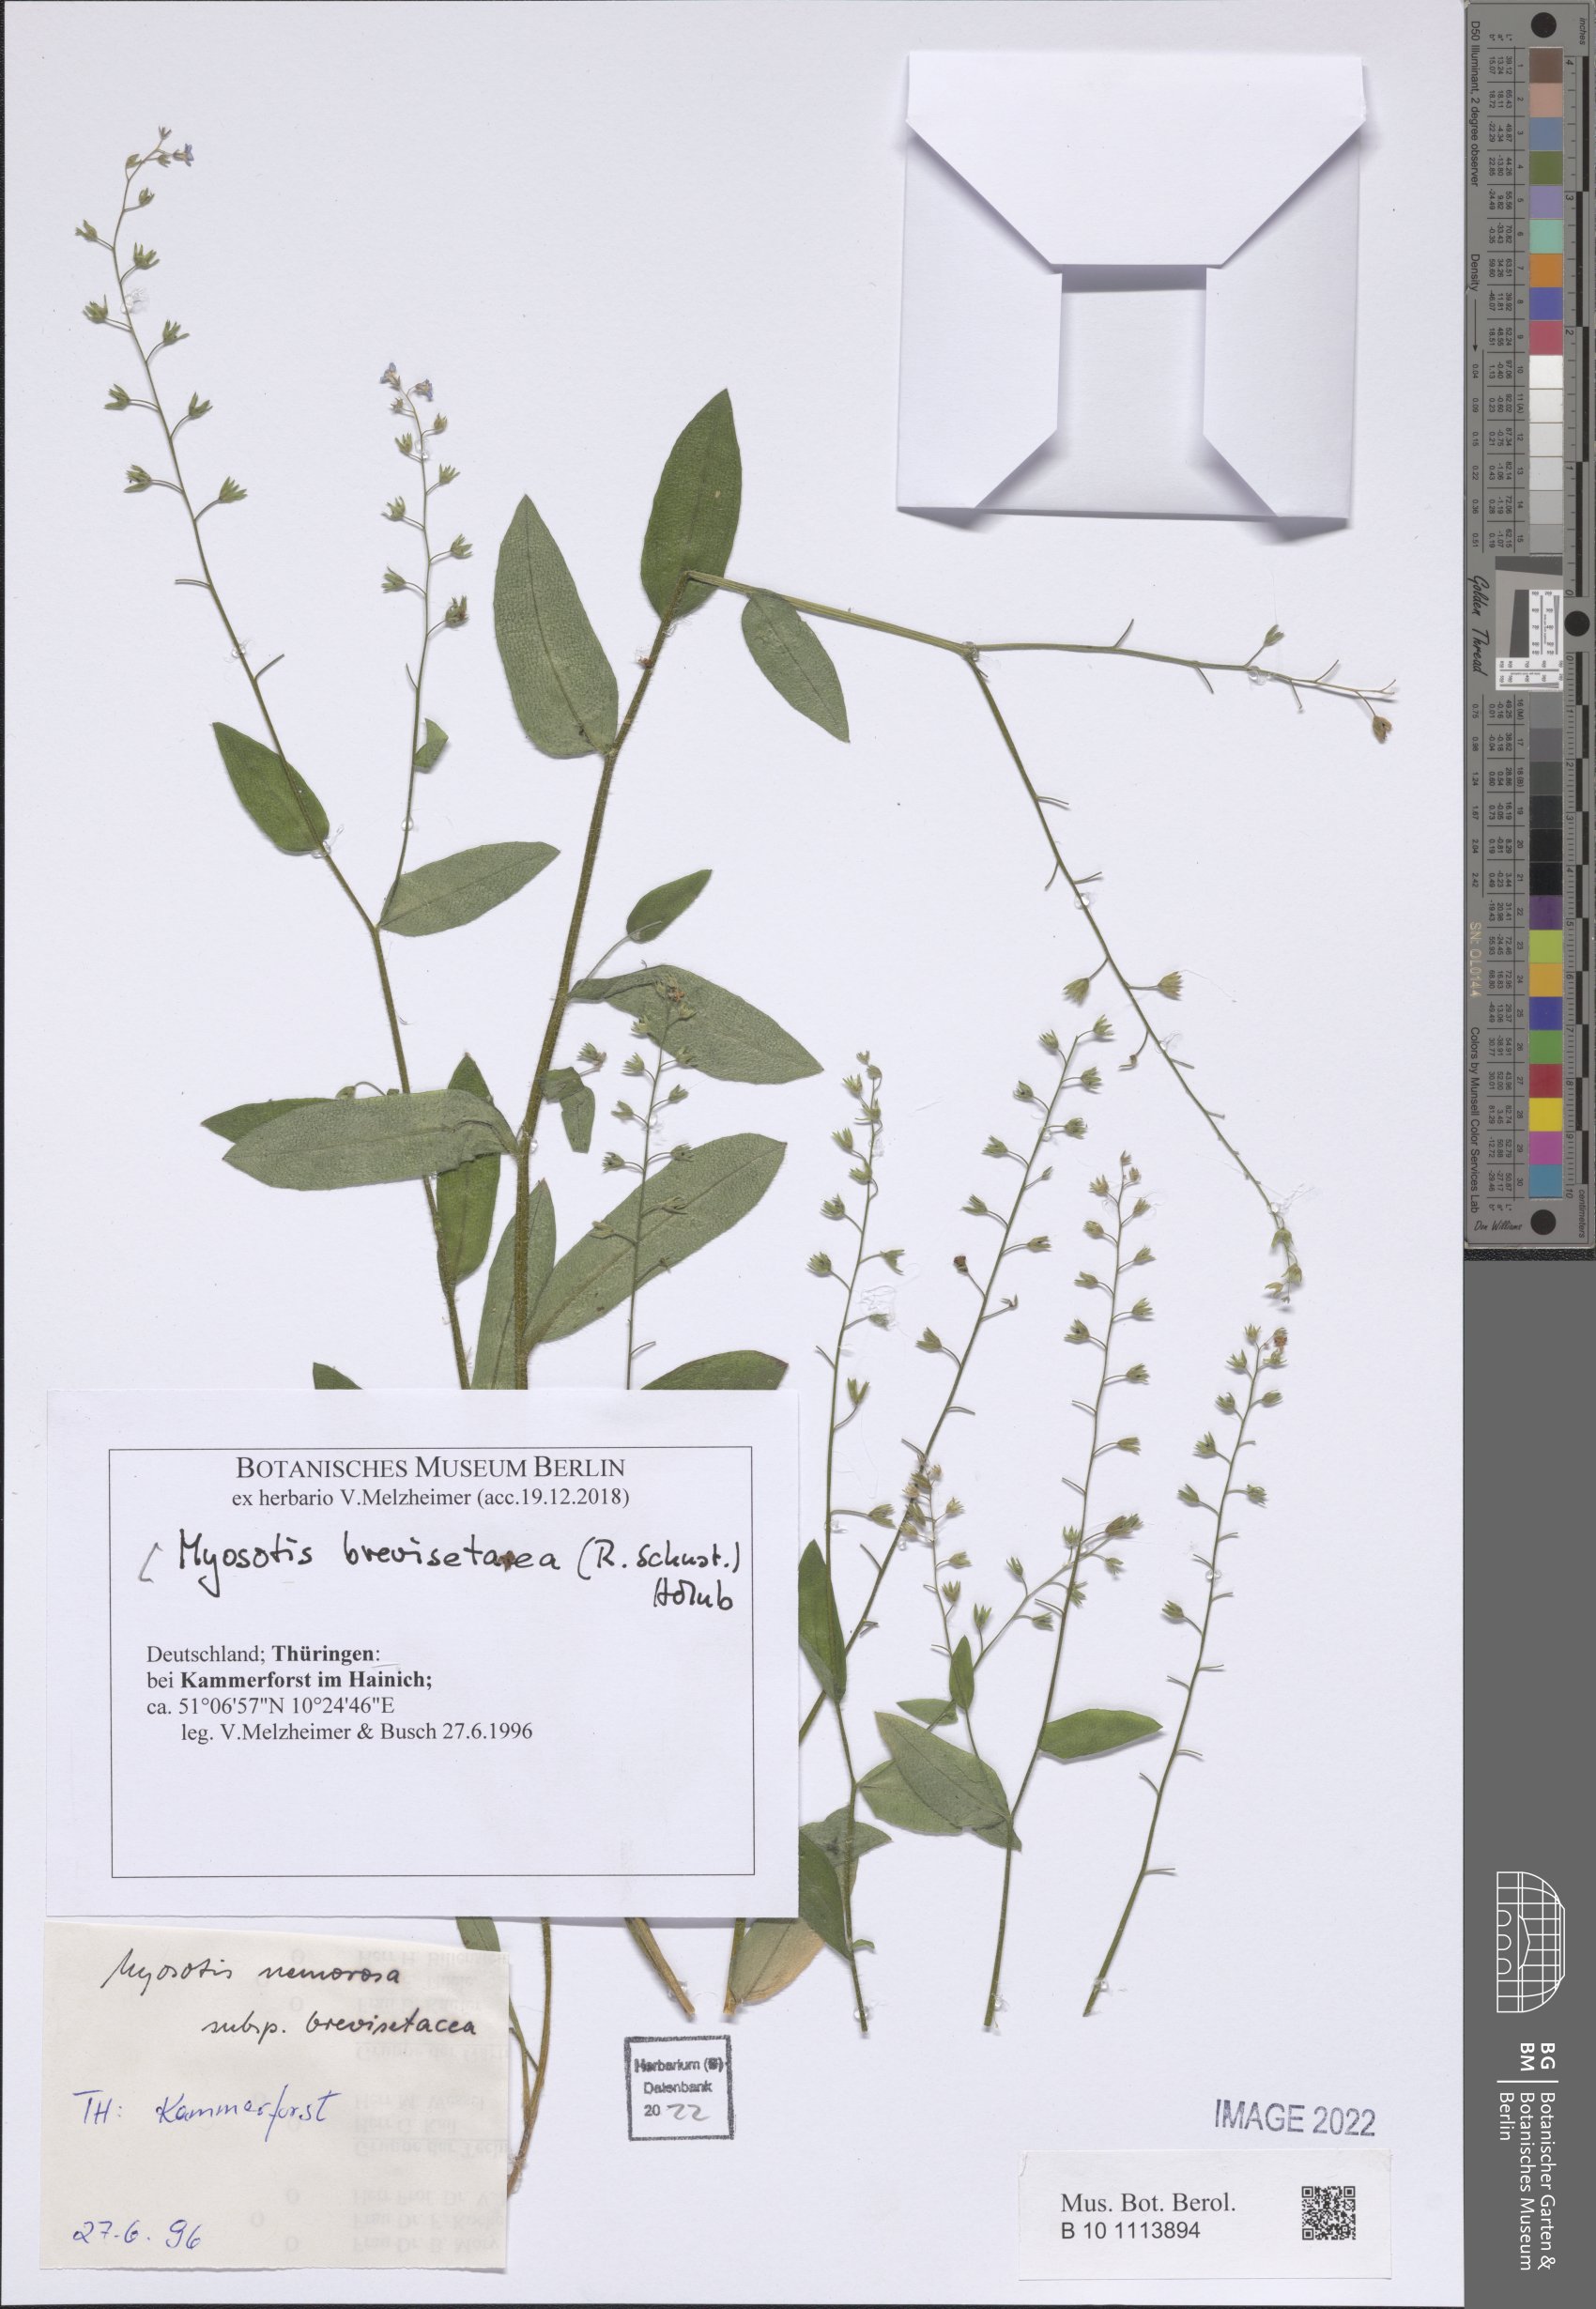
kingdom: Plantae
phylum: Tracheophyta
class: Magnoliopsida
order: Boraginales
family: Boraginaceae
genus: Myosotis
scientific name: Myosotis nemorosa
